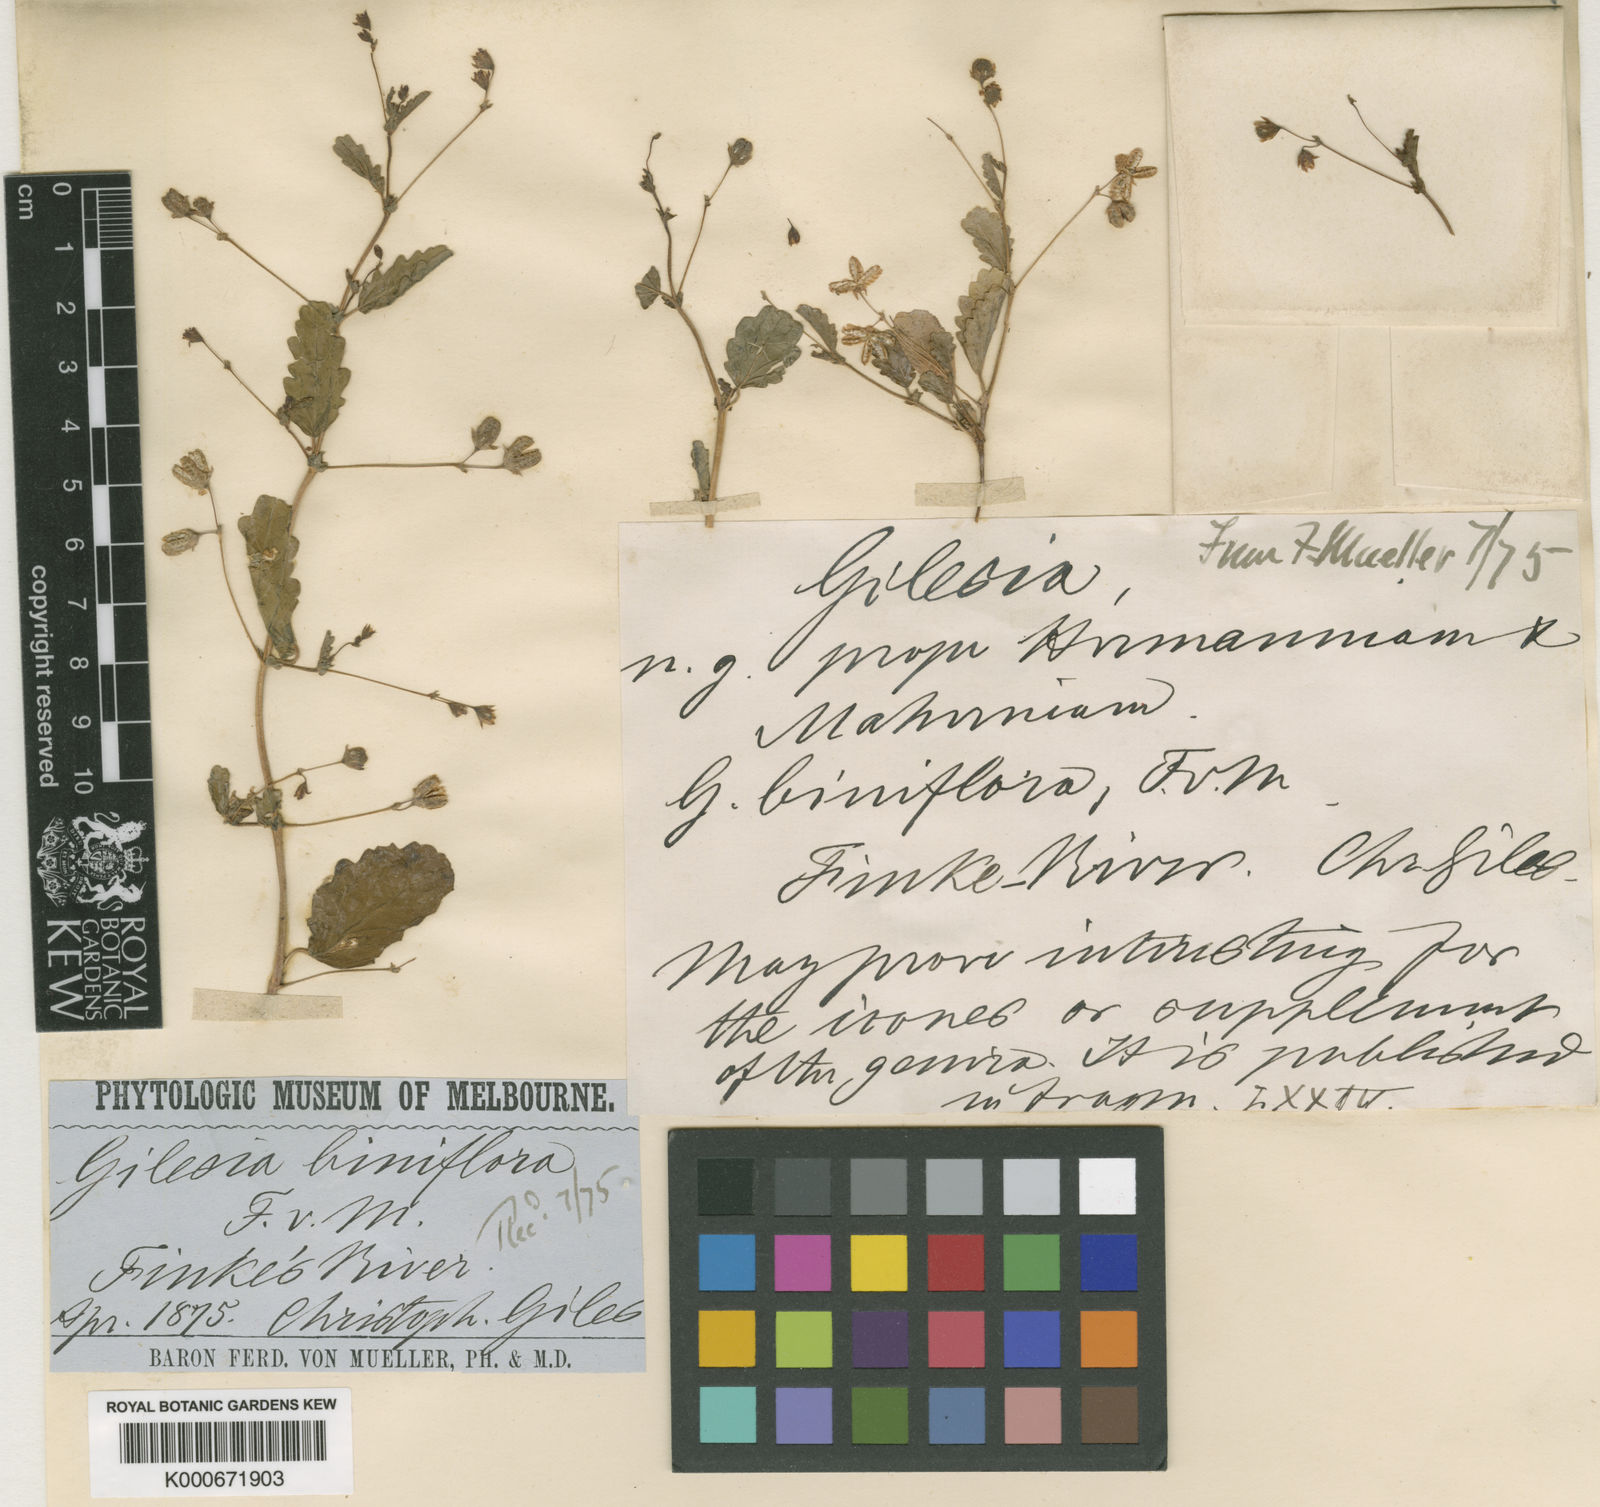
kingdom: Plantae
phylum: Tracheophyta
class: Magnoliopsida
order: Malvales
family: Malvaceae
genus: Gilesia
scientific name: Gilesia biniflora
